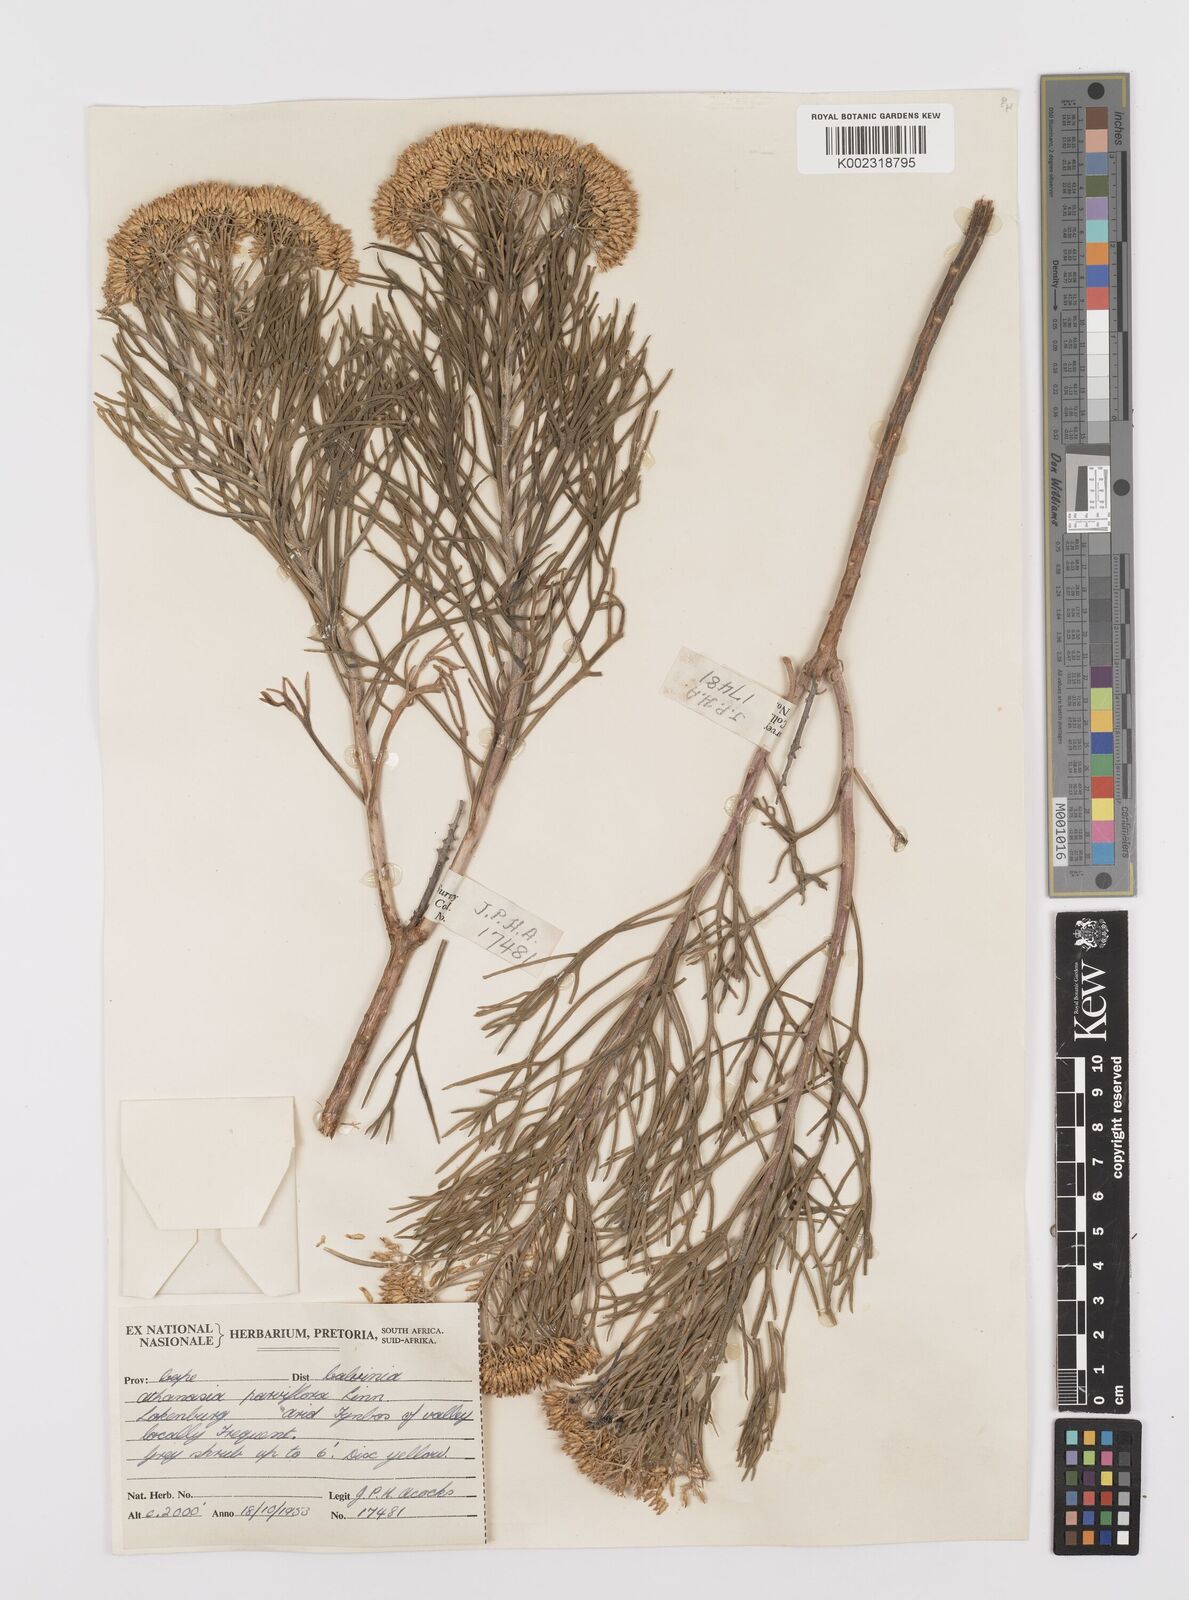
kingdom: Plantae
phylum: Tracheophyta
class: Magnoliopsida
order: Asterales
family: Asteraceae
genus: Hymenolepis
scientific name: Hymenolepis crithmifolia
